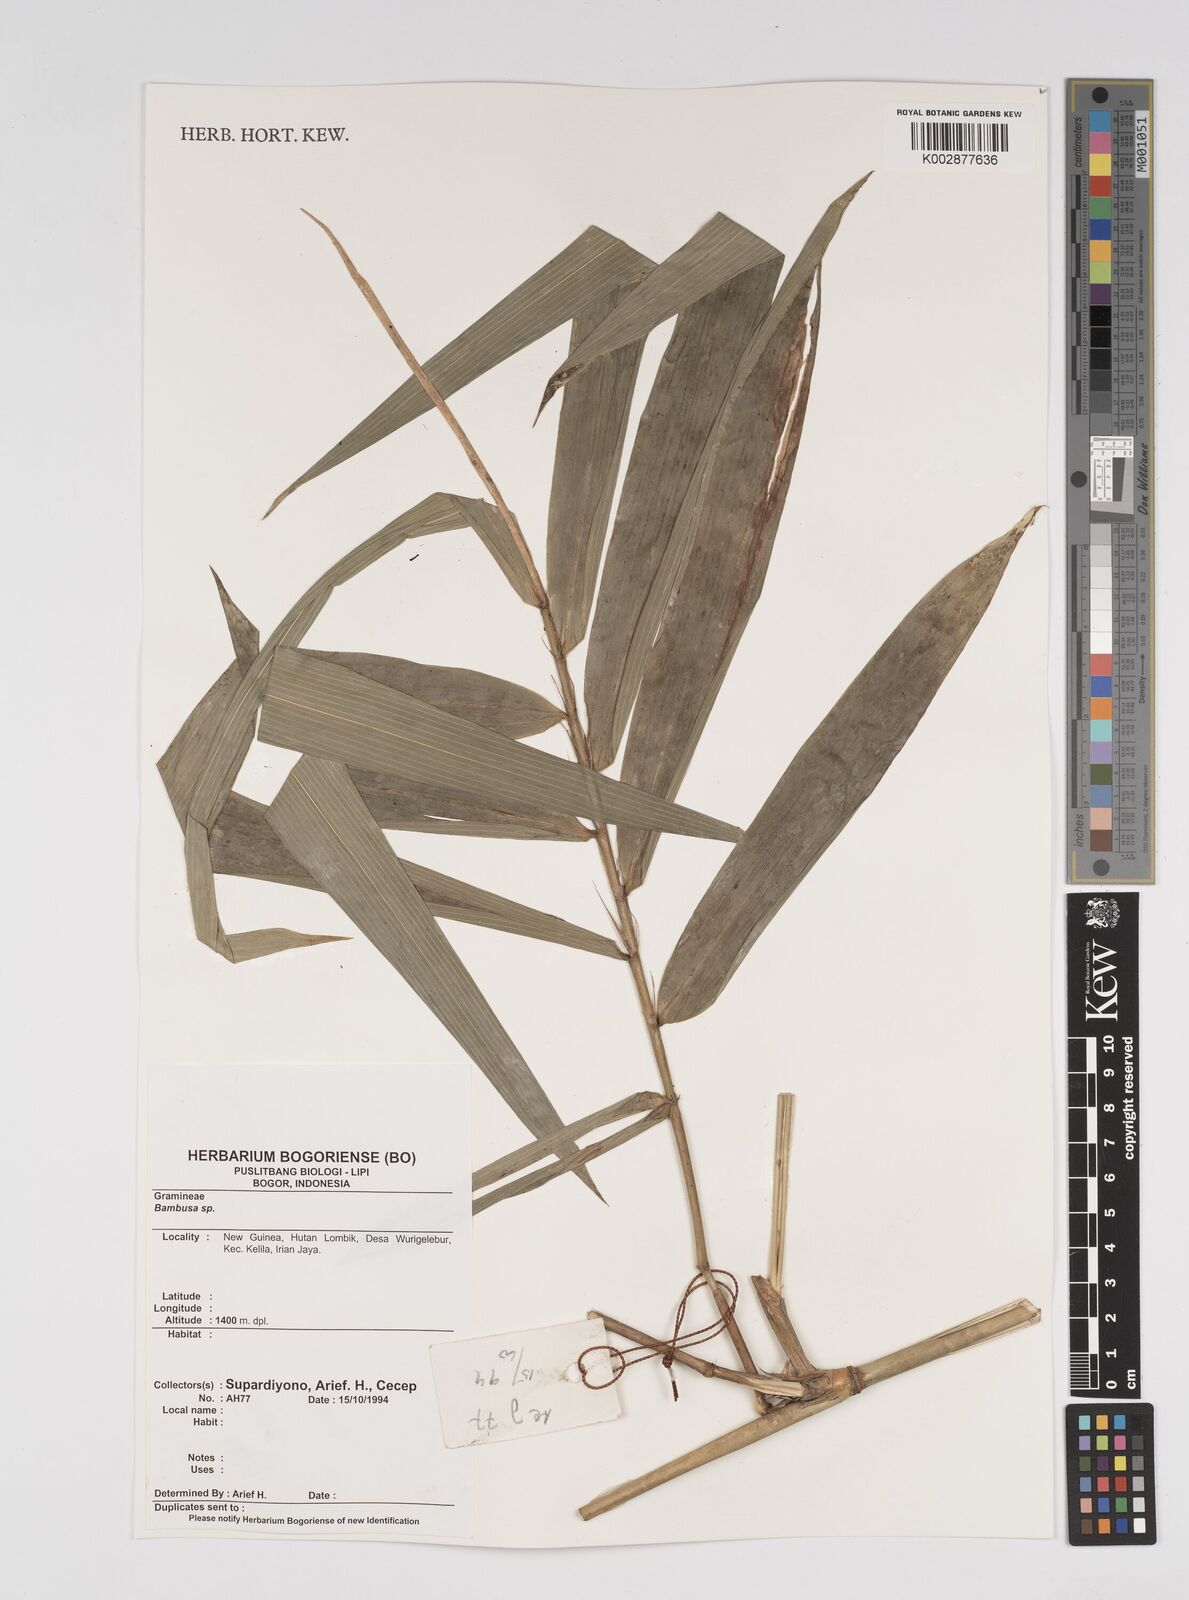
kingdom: Plantae
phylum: Tracheophyta
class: Liliopsida
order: Poales
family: Poaceae
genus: Bambusa
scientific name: Bambusa bambos
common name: Indian thorny bamboo
